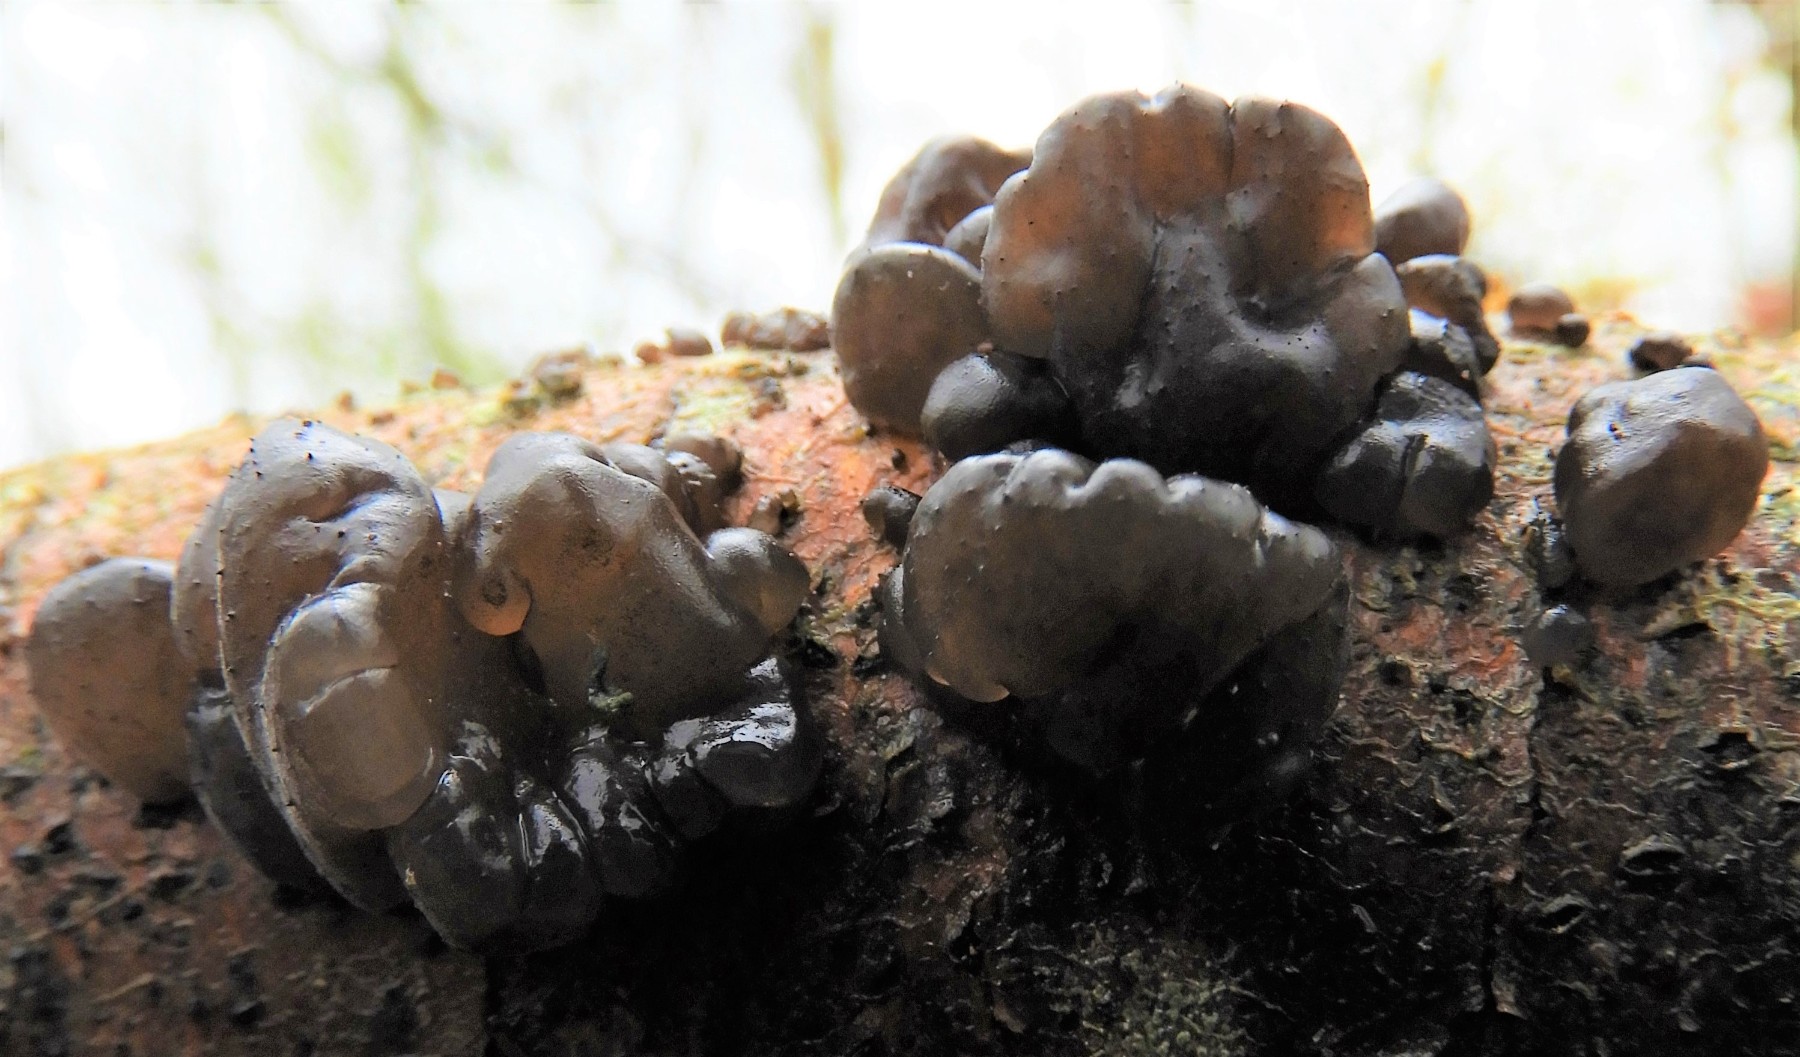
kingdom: Fungi
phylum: Basidiomycota
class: Agaricomycetes
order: Auriculariales
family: Auriculariaceae
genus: Exidia
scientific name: Exidia glandulosa
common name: ege-bævretop
